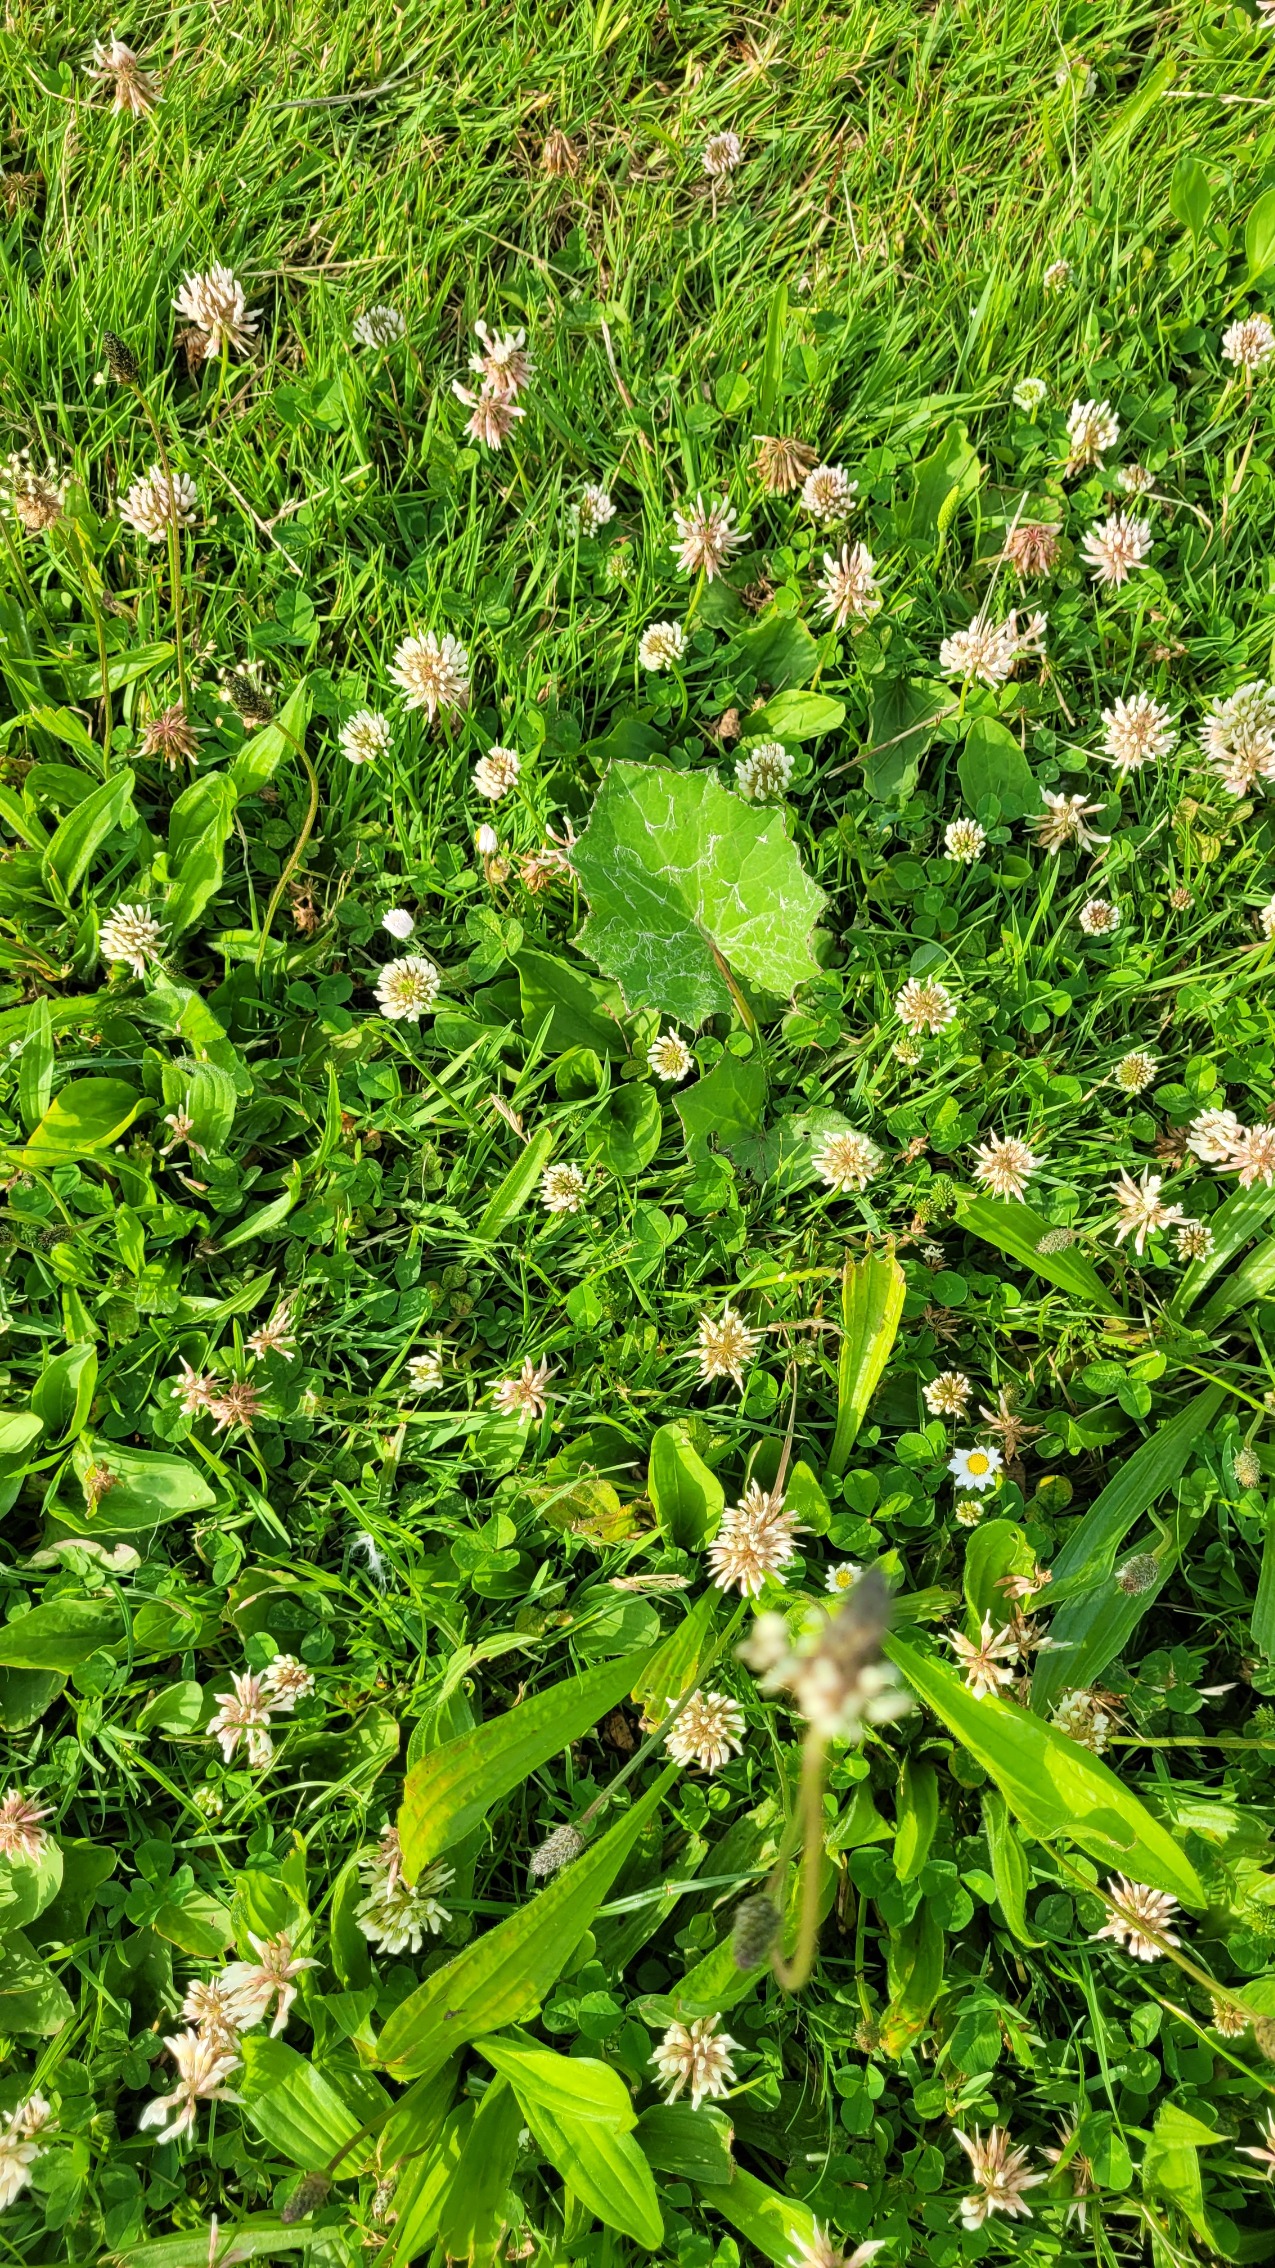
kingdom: Plantae
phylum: Tracheophyta
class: Magnoliopsida
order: Asterales
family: Asteraceae
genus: Tussilago
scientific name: Tussilago farfara
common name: Følfod
